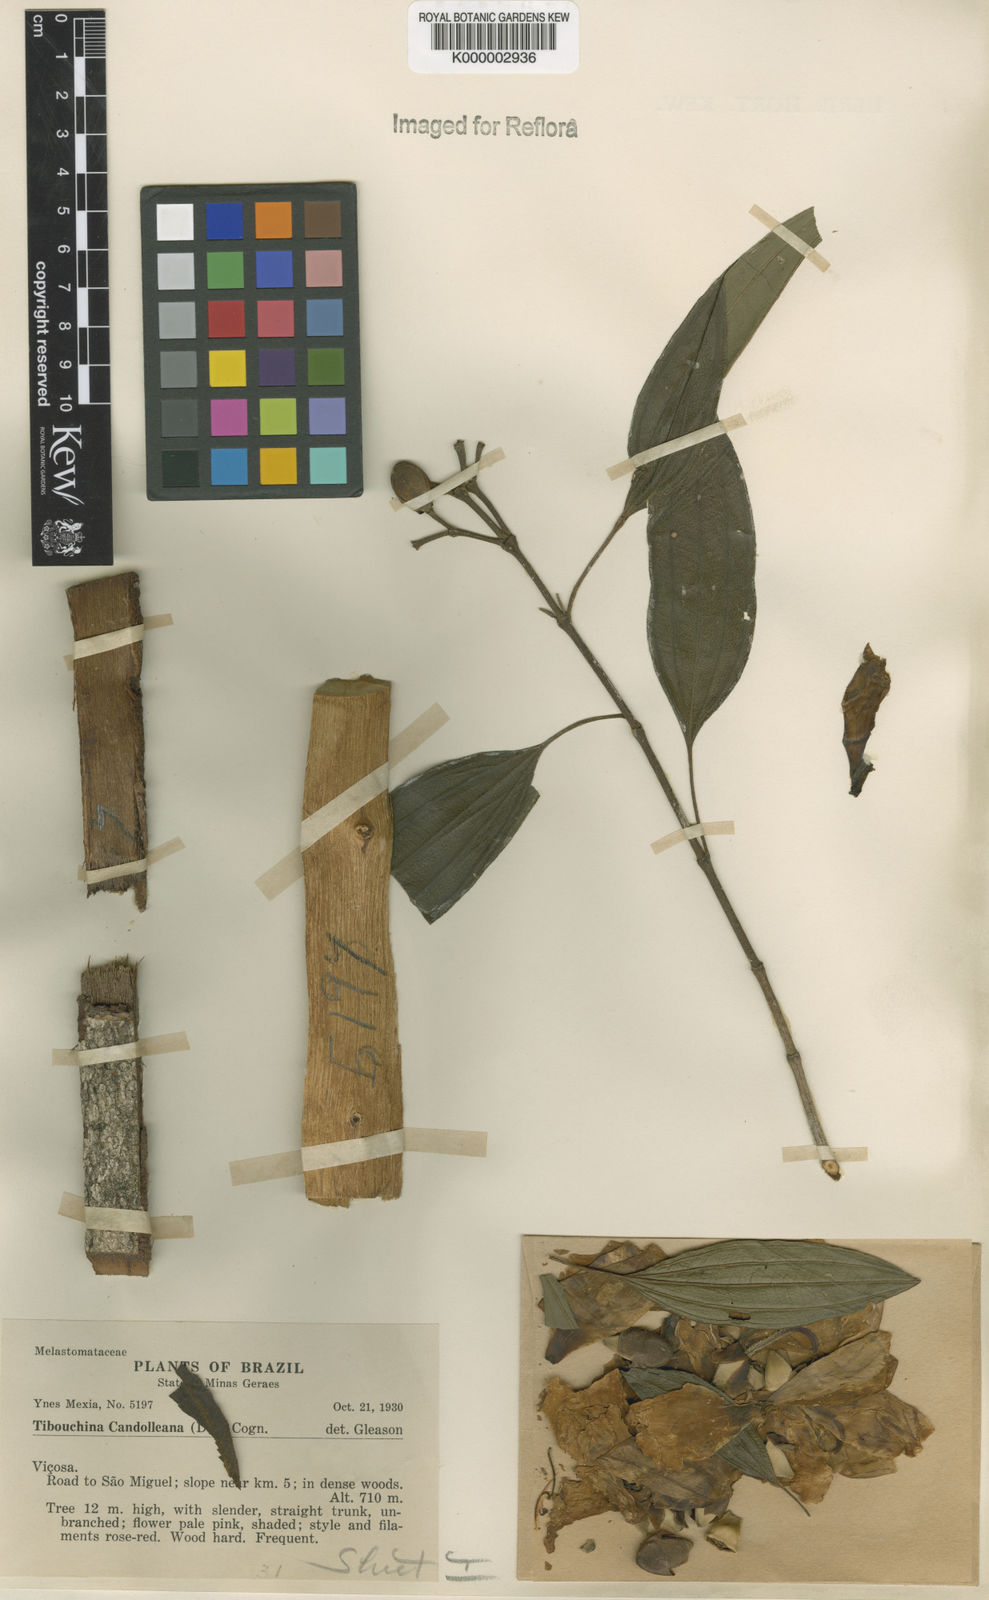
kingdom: Plantae
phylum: Tracheophyta
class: Magnoliopsida
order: Myrtales
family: Melastomataceae
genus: Pleroma
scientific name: Pleroma candolleanum
